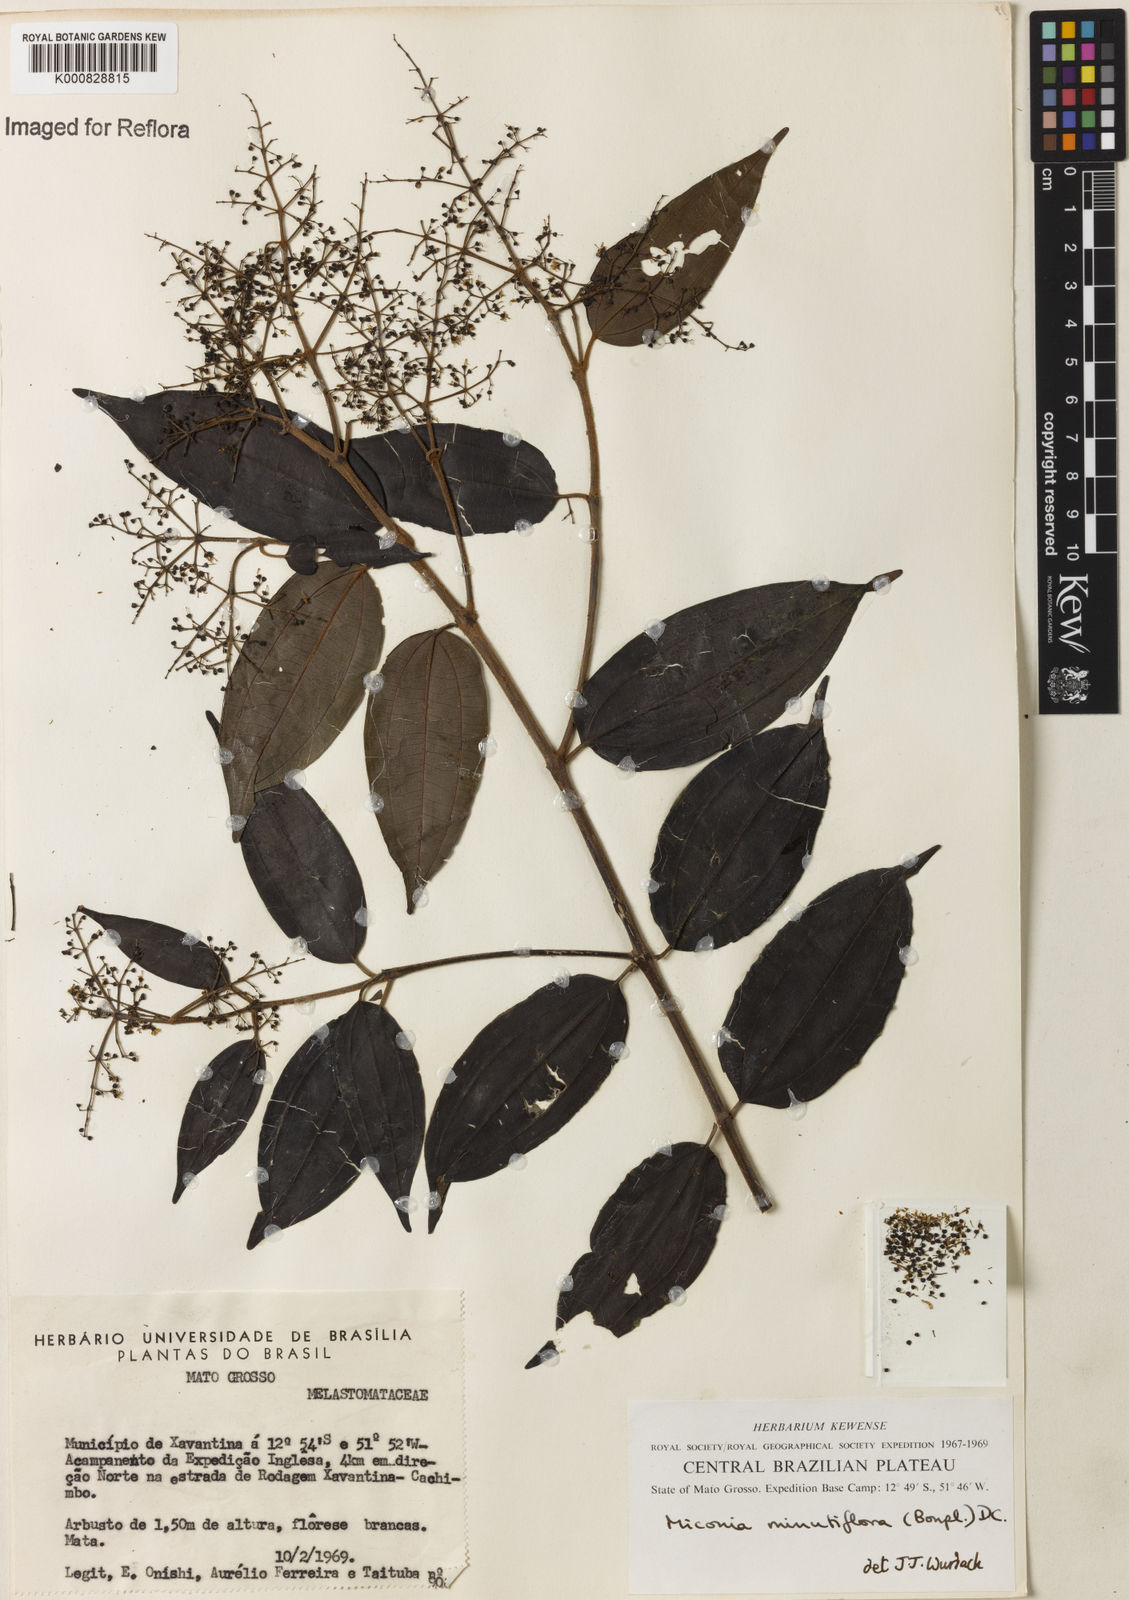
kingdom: Plantae
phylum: Tracheophyta
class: Magnoliopsida
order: Myrtales
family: Melastomataceae
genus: Miconia
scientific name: Miconia minutiflora
